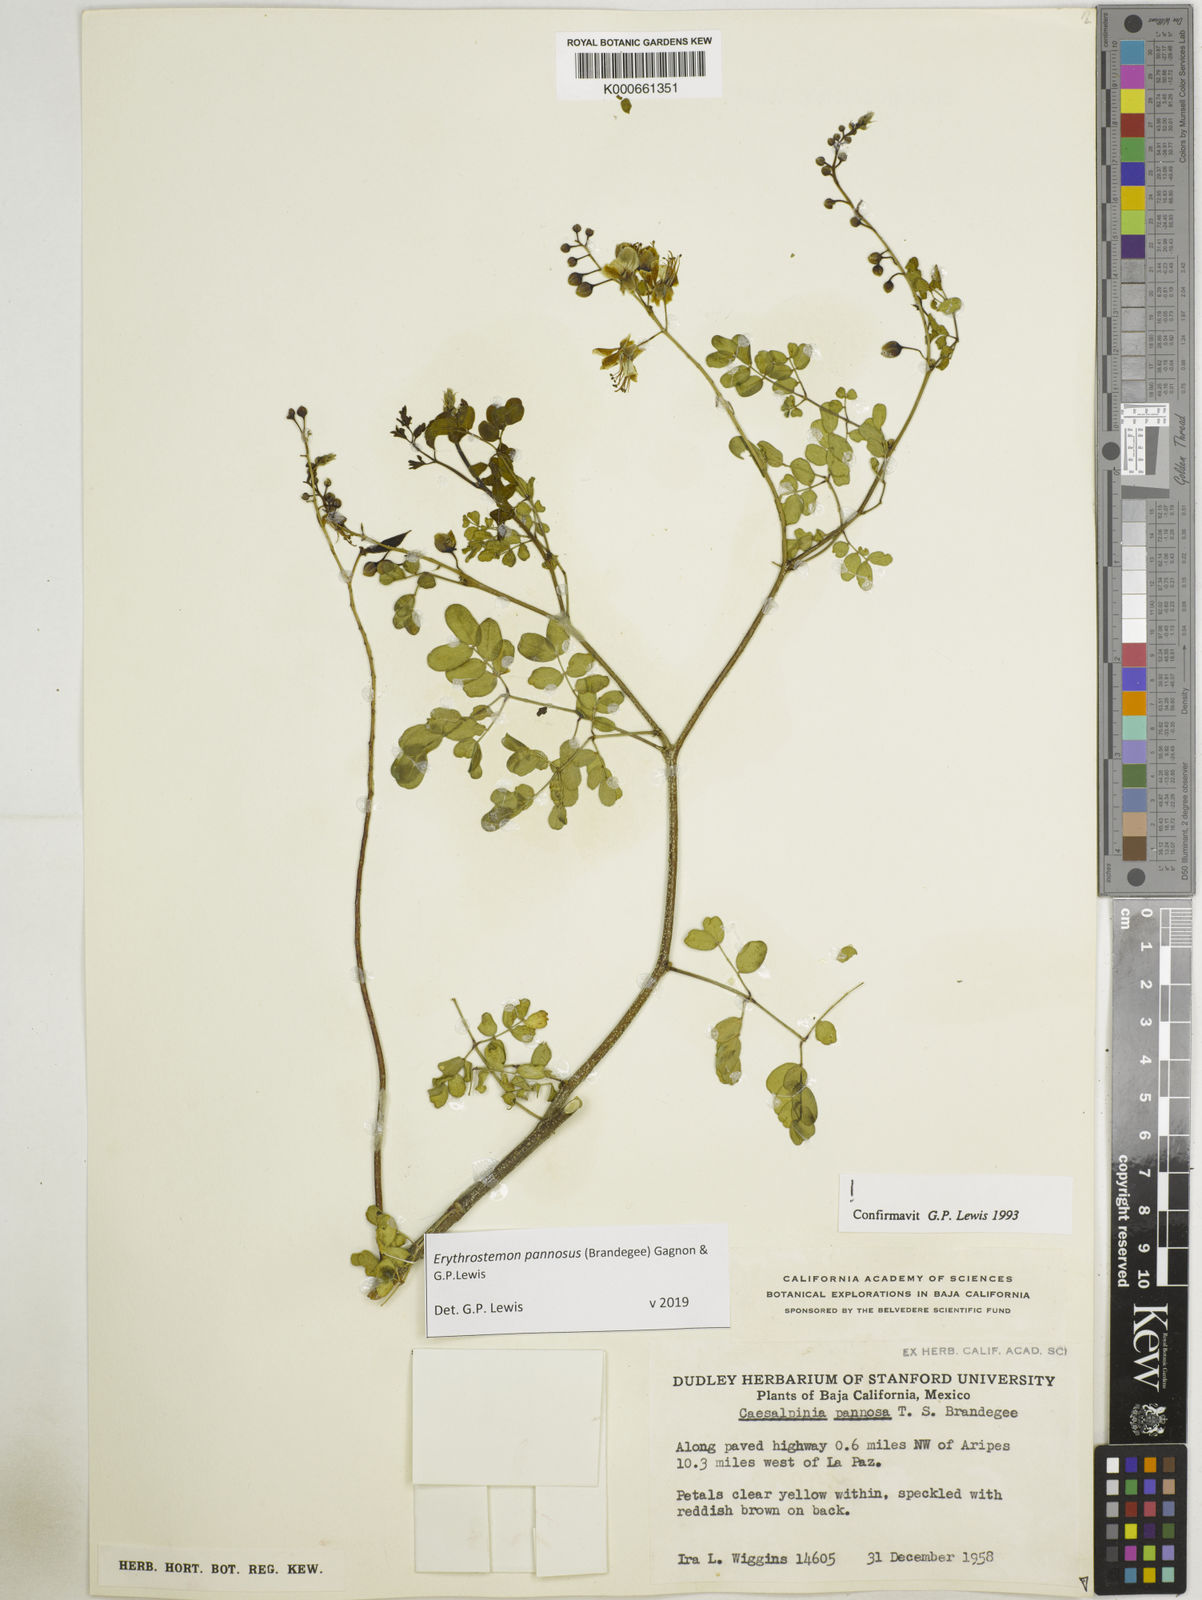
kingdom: Plantae
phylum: Tracheophyta
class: Magnoliopsida
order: Fabales
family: Fabaceae
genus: Erythrostemon
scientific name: Erythrostemon pannosus
